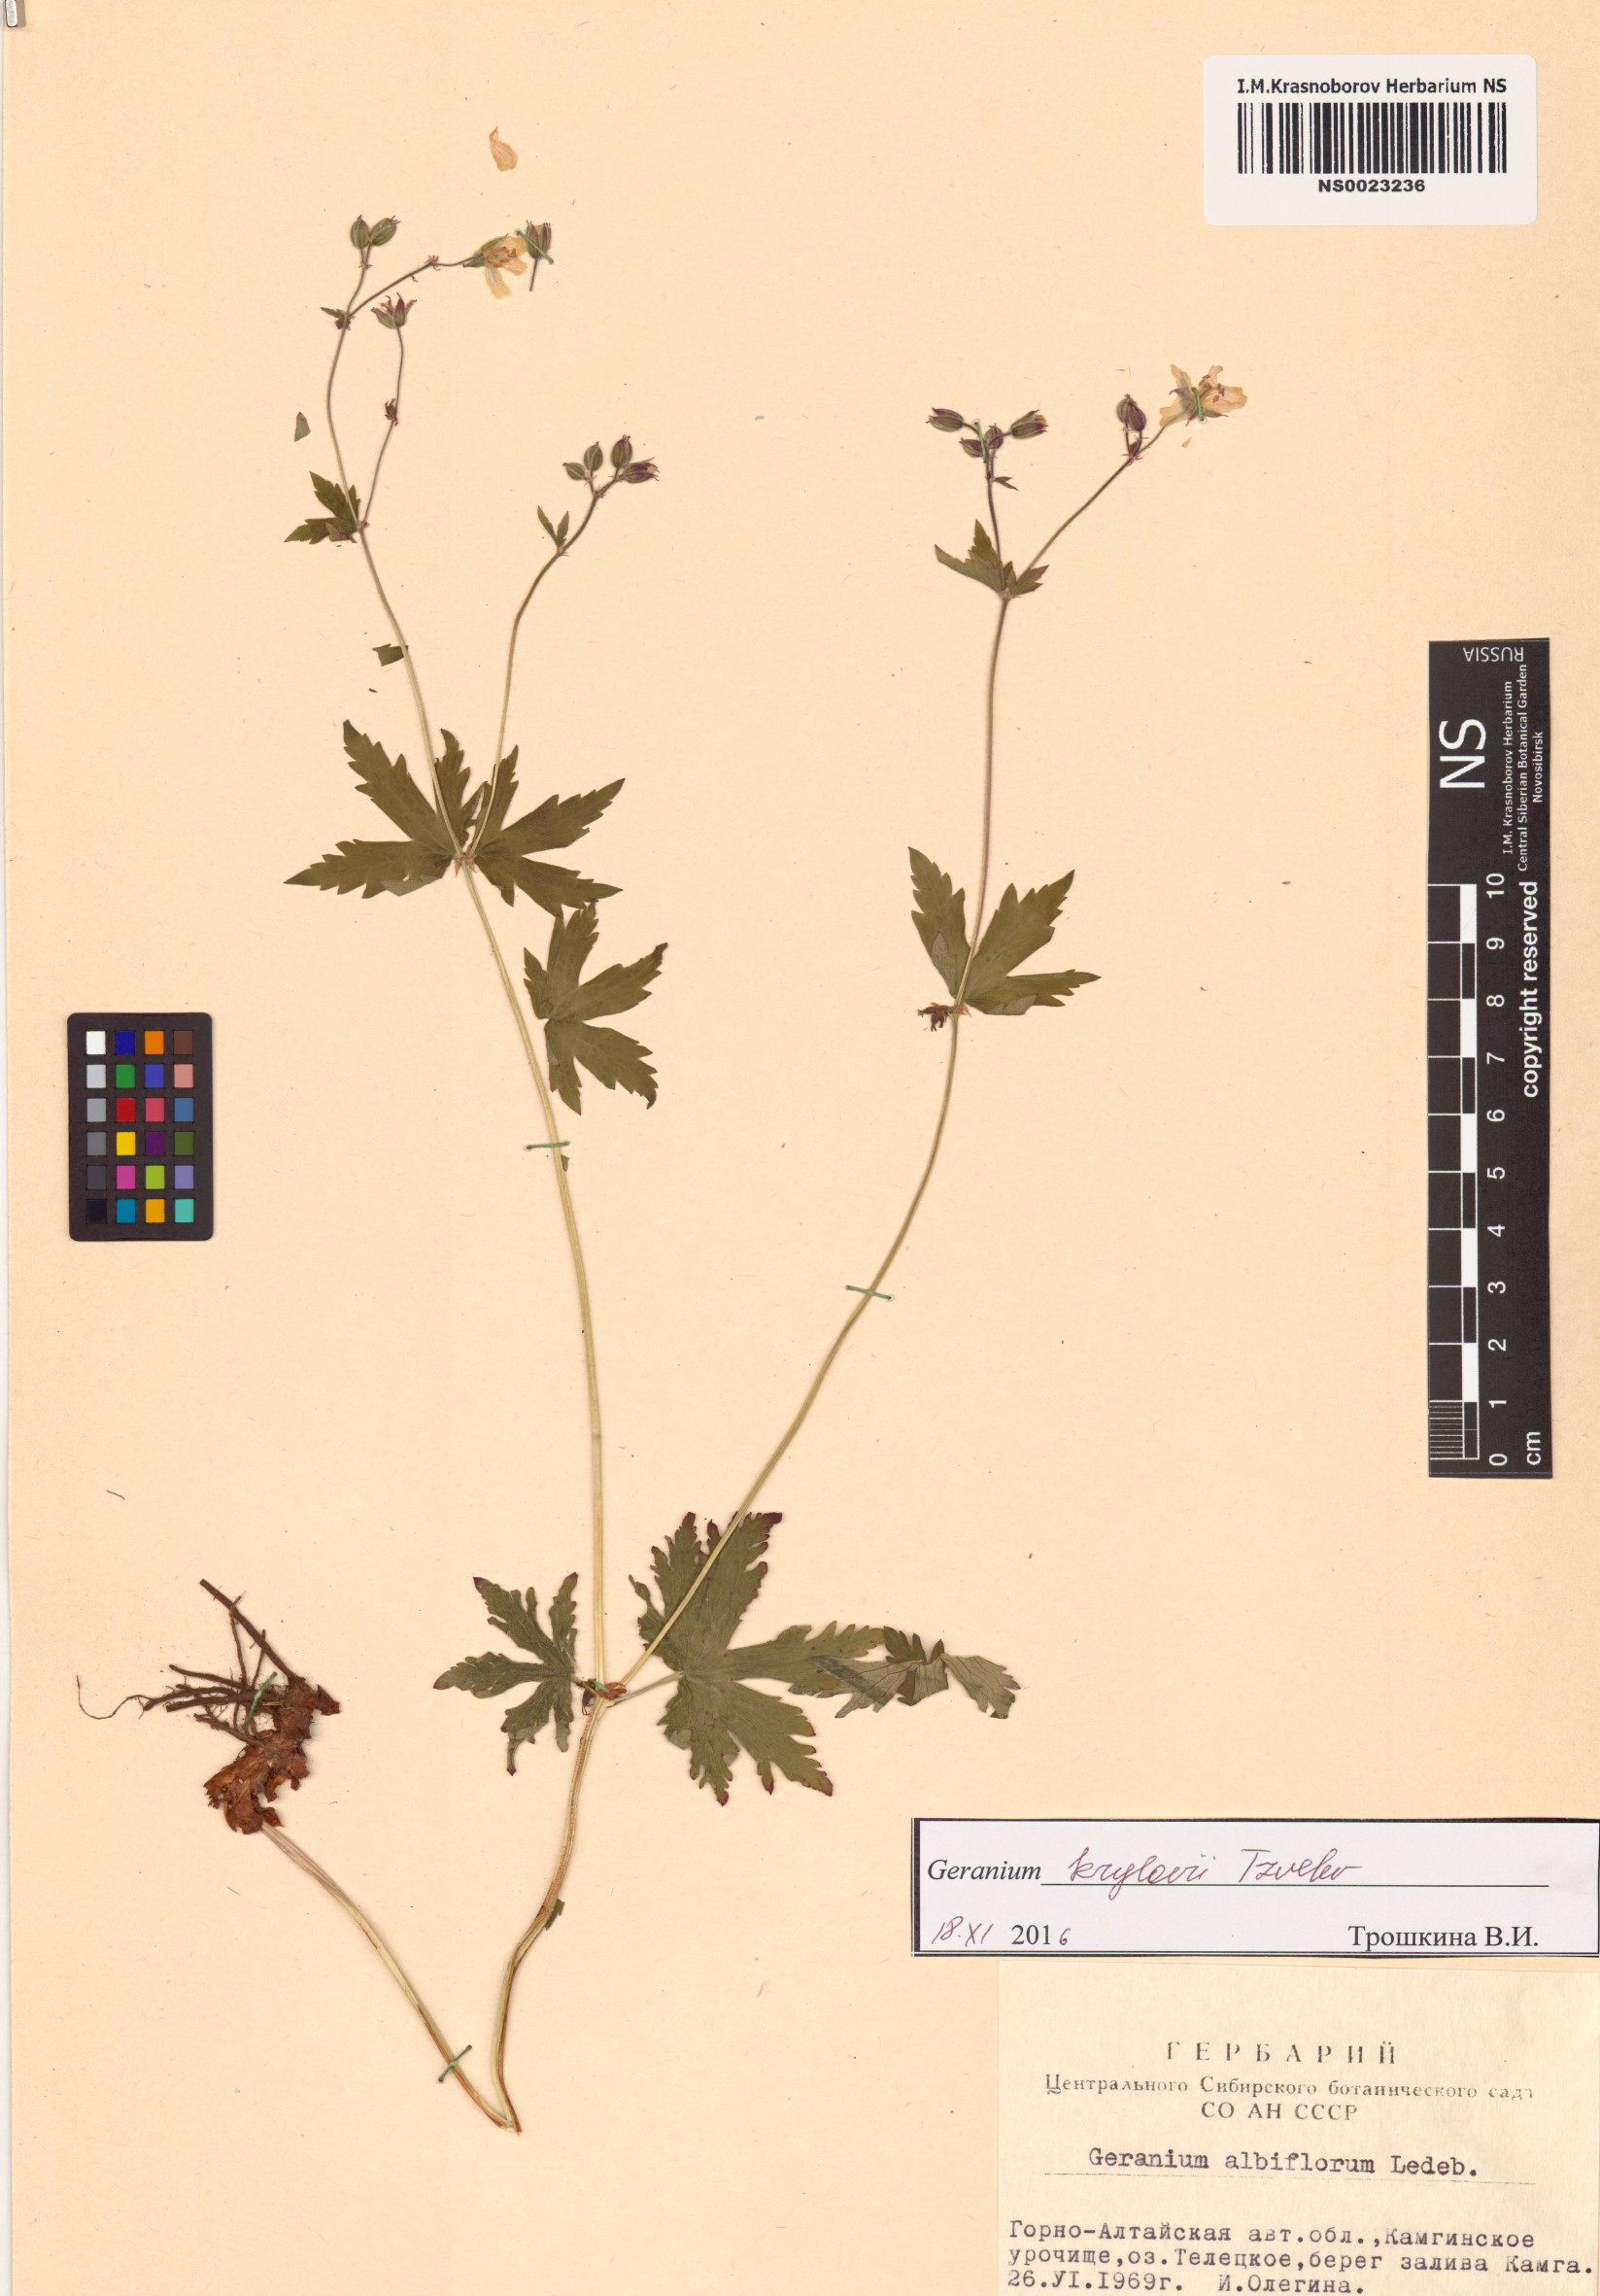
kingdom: Plantae
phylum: Tracheophyta
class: Magnoliopsida
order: Geraniales
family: Geraniaceae
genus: Geranium
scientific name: Geranium sylvaticum
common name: Wood crane's-bill
